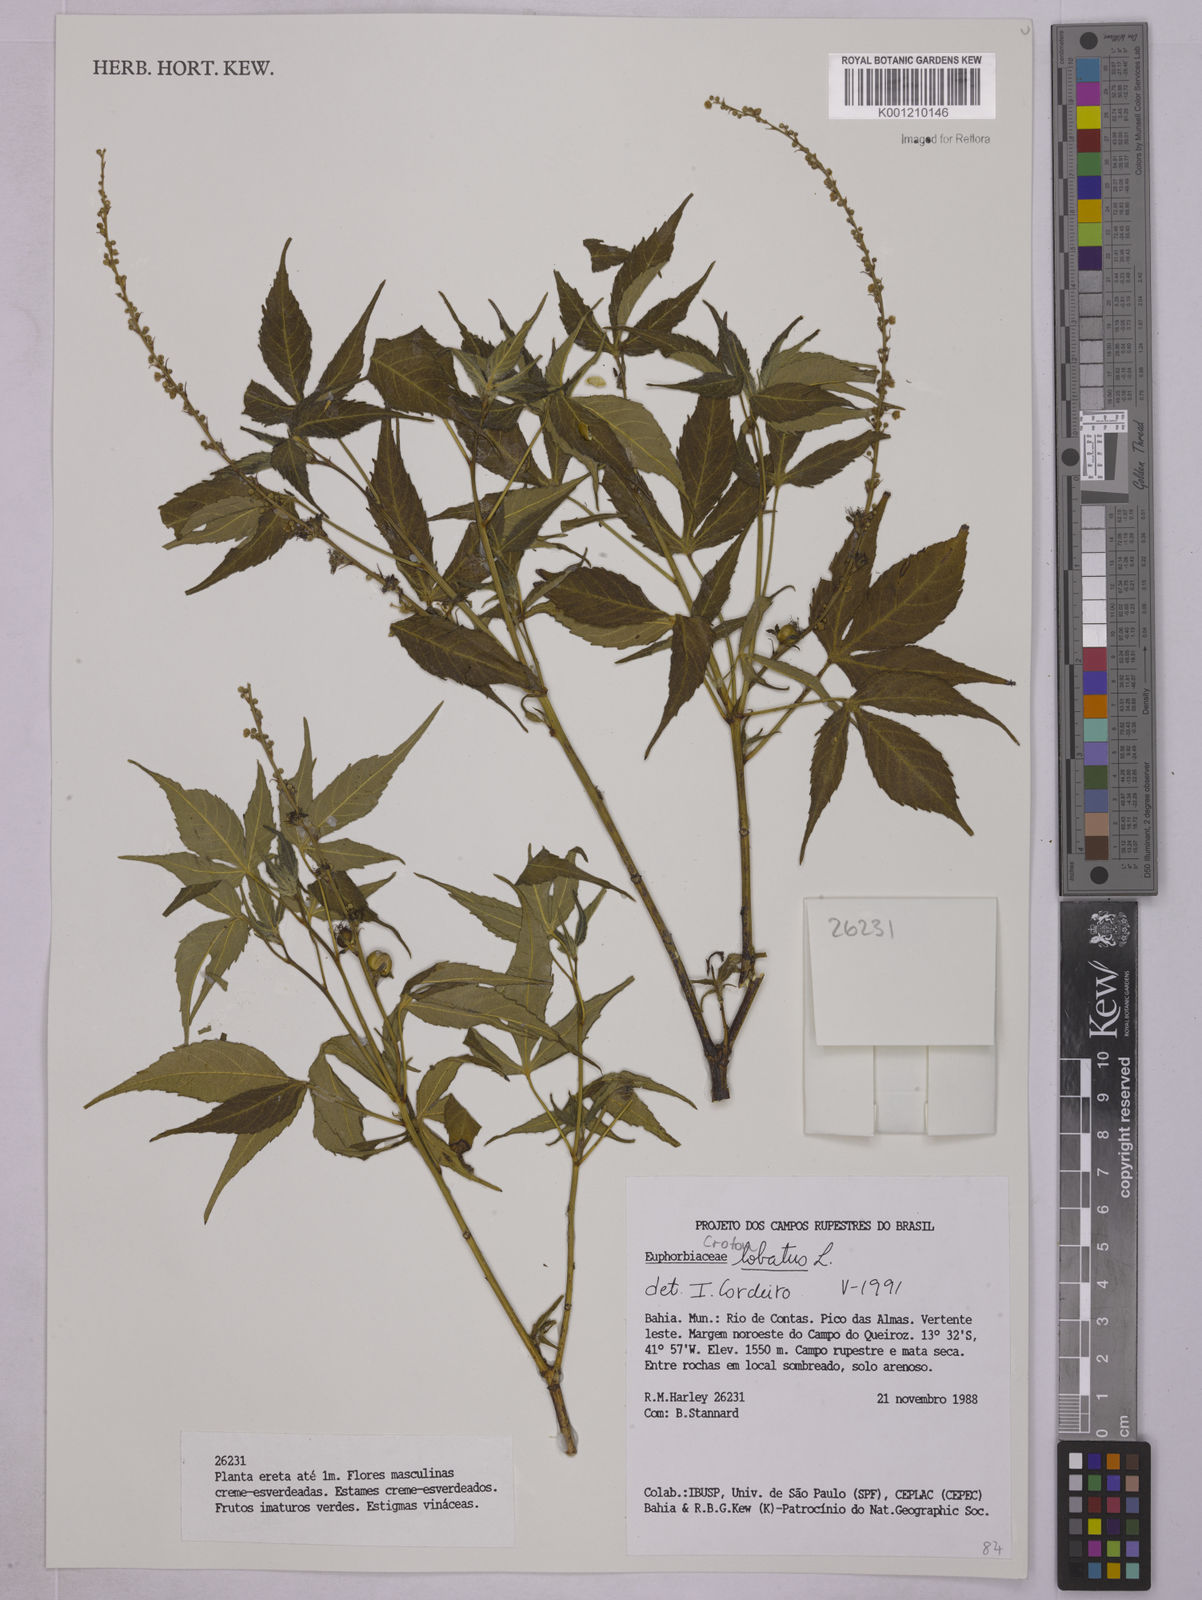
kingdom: Plantae
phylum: Tracheophyta
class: Magnoliopsida
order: Malpighiales
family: Euphorbiaceae
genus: Astraea
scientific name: Astraea lobata
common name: Lobed croton
